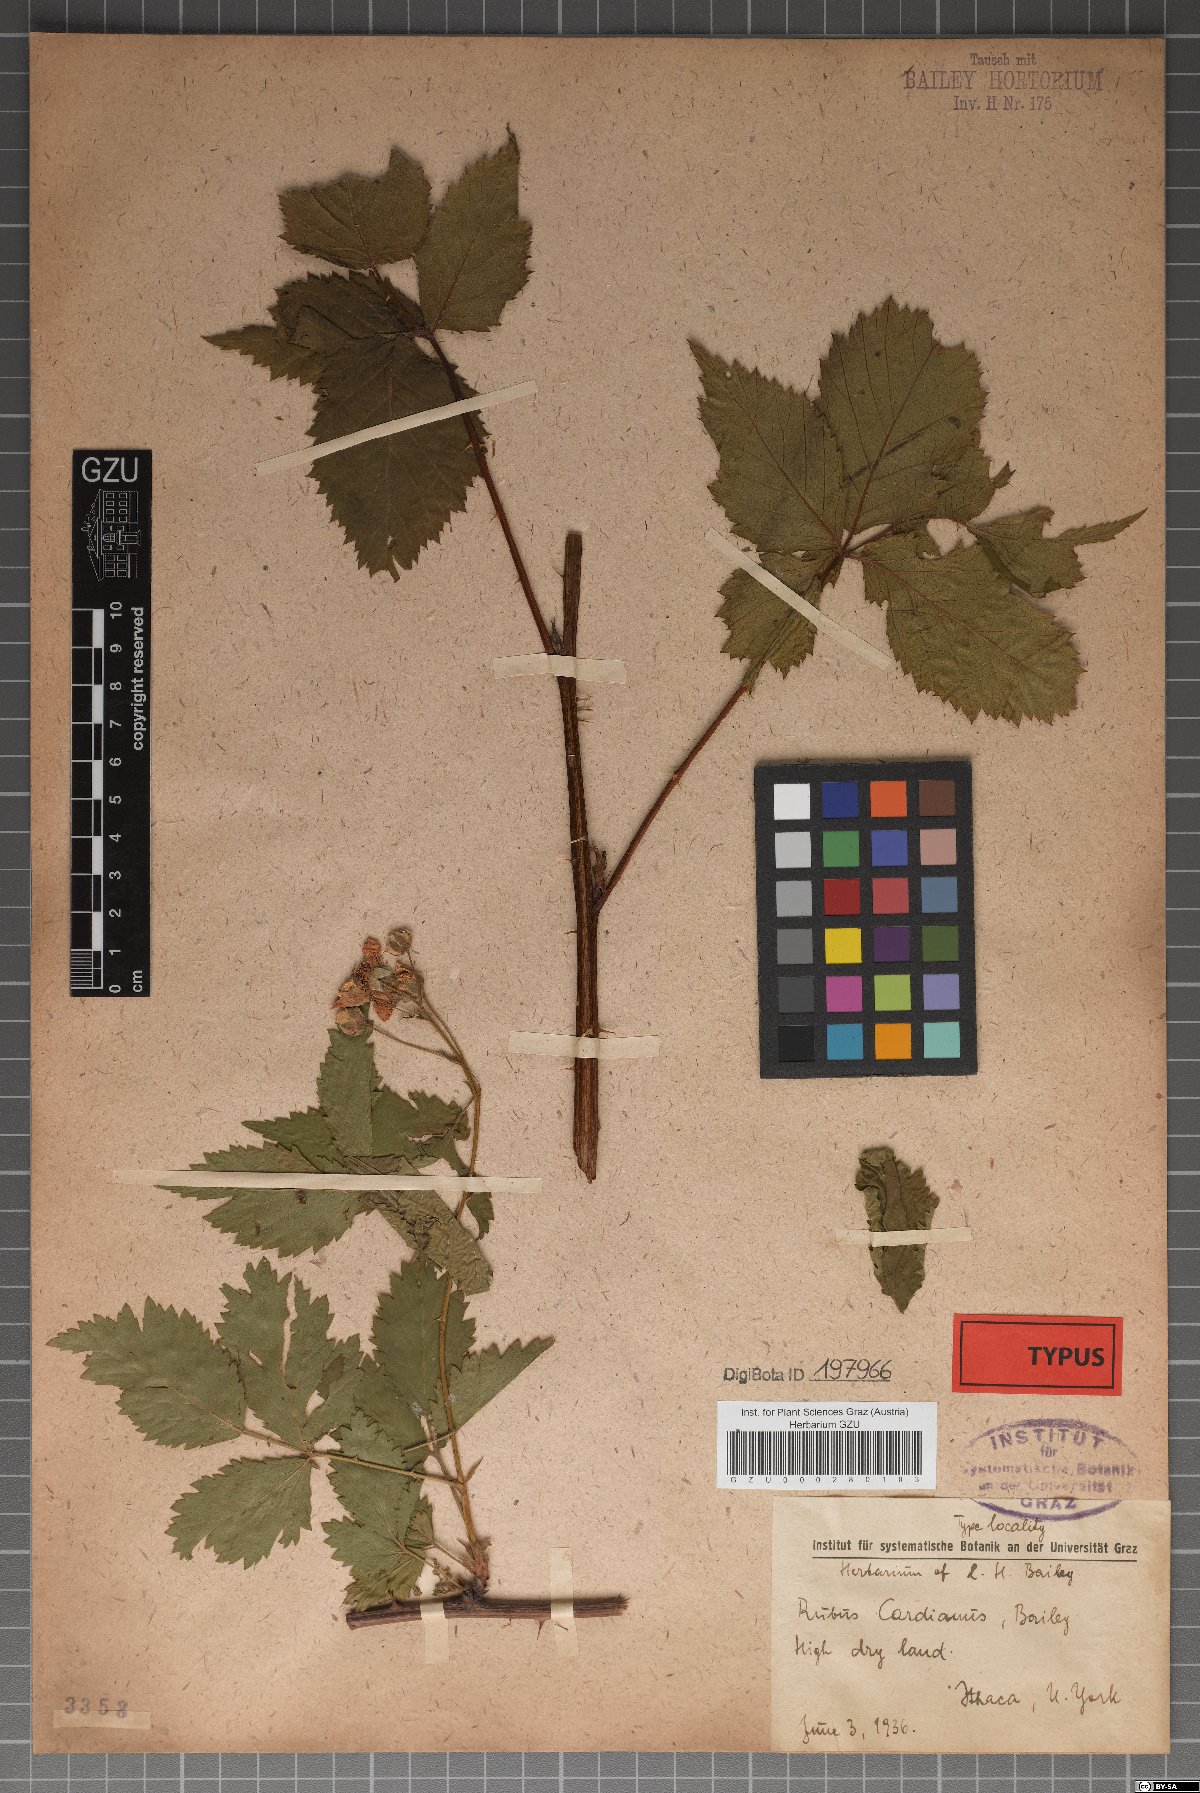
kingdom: Plantae
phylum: Tracheophyta
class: Magnoliopsida
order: Rosales
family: Rosaceae
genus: Rubus
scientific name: Rubus frondosus
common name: Yankee blackberry
